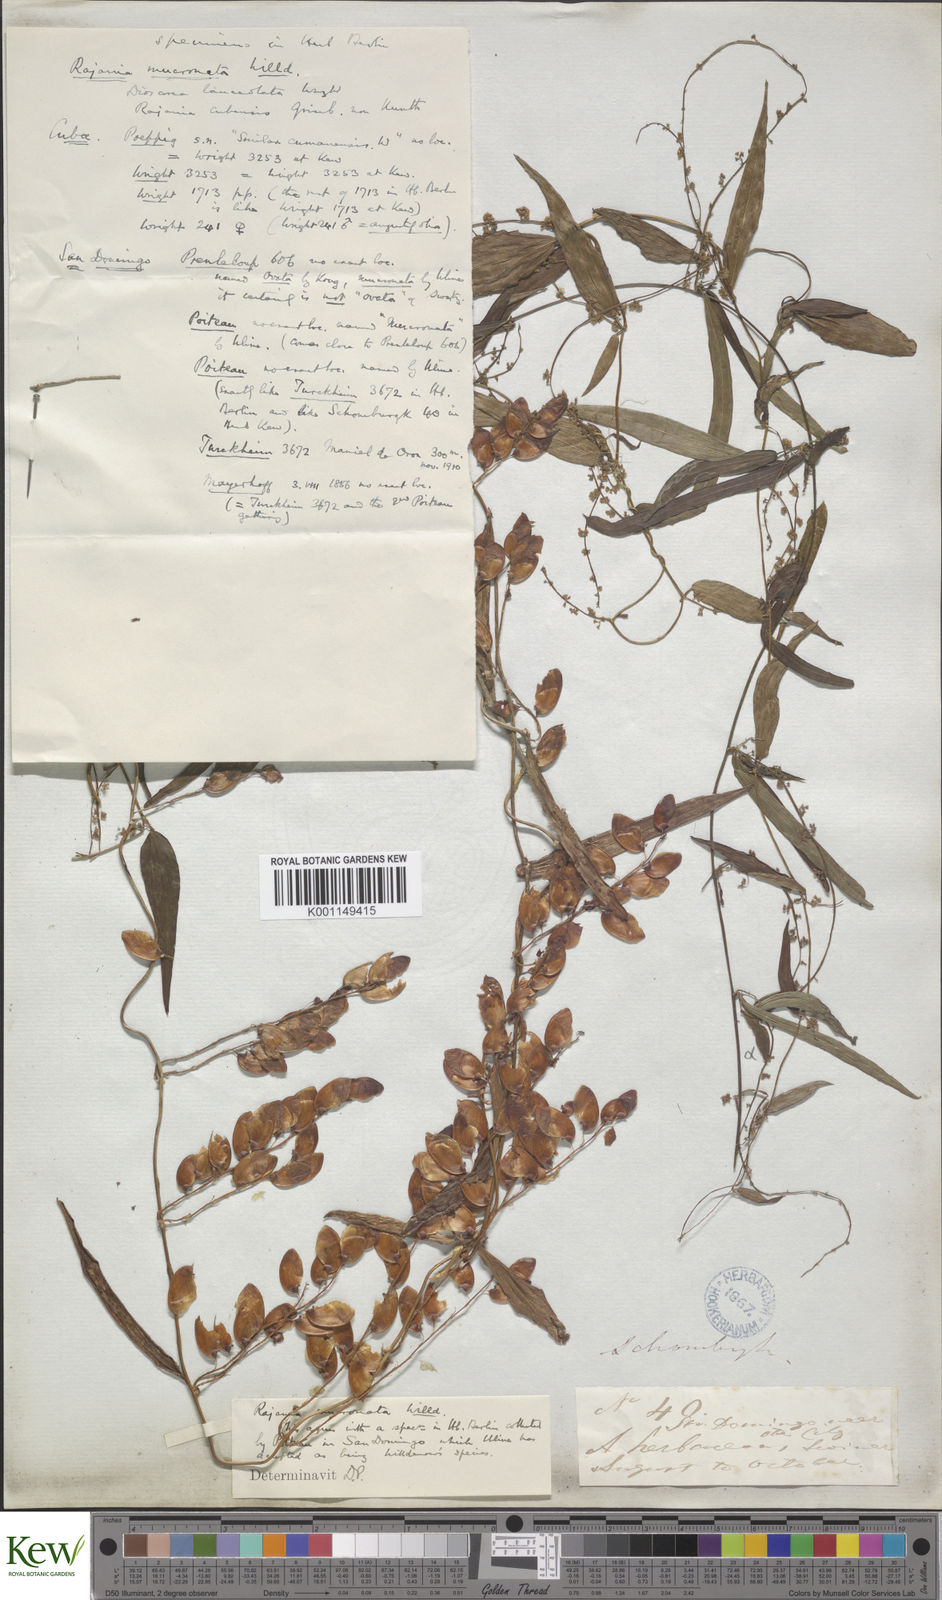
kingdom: Plantae
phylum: Tracheophyta
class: Liliopsida
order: Dioscoreales
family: Dioscoreaceae
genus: Dioscorea
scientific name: Dioscorea
